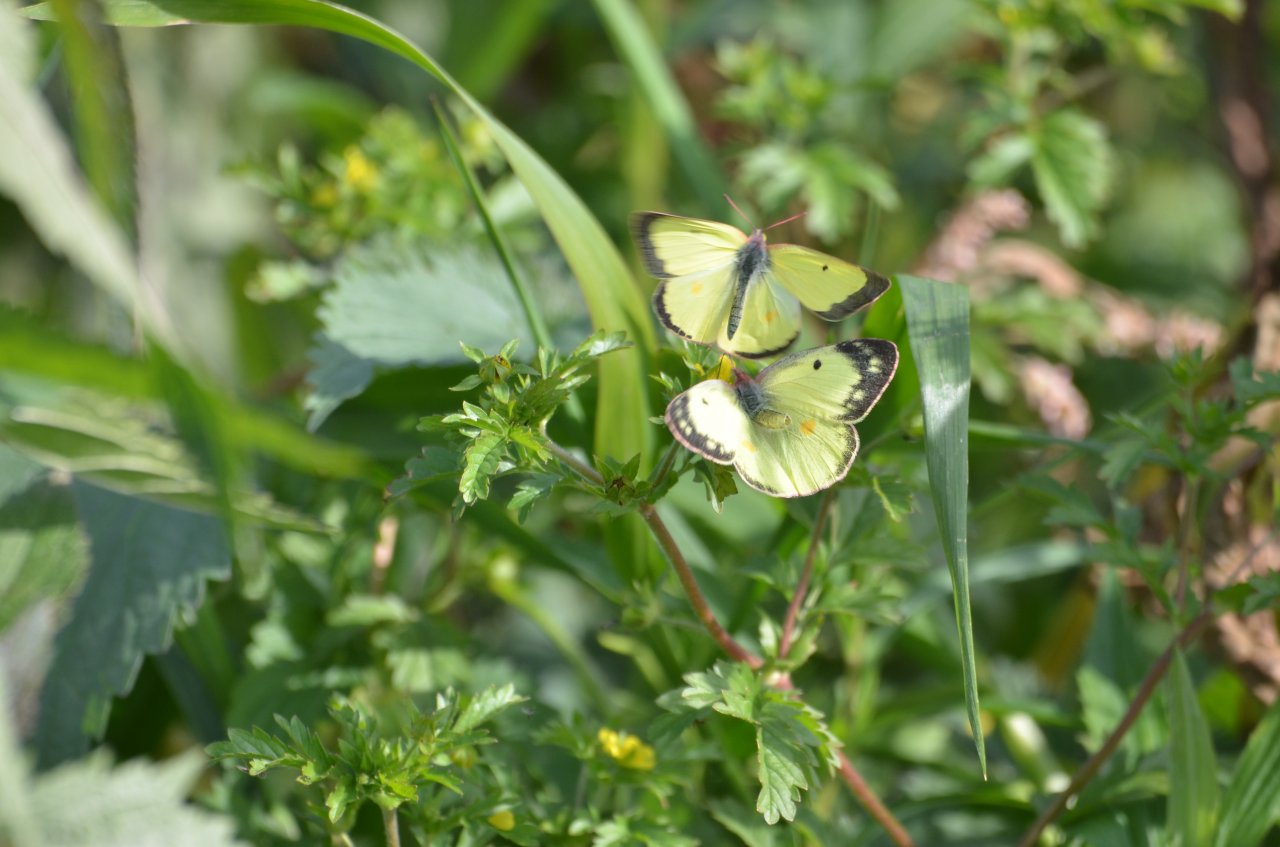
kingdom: Animalia
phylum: Arthropoda
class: Insecta
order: Lepidoptera
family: Pieridae
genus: Colias
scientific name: Colias philodice
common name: Clouded Sulphur
